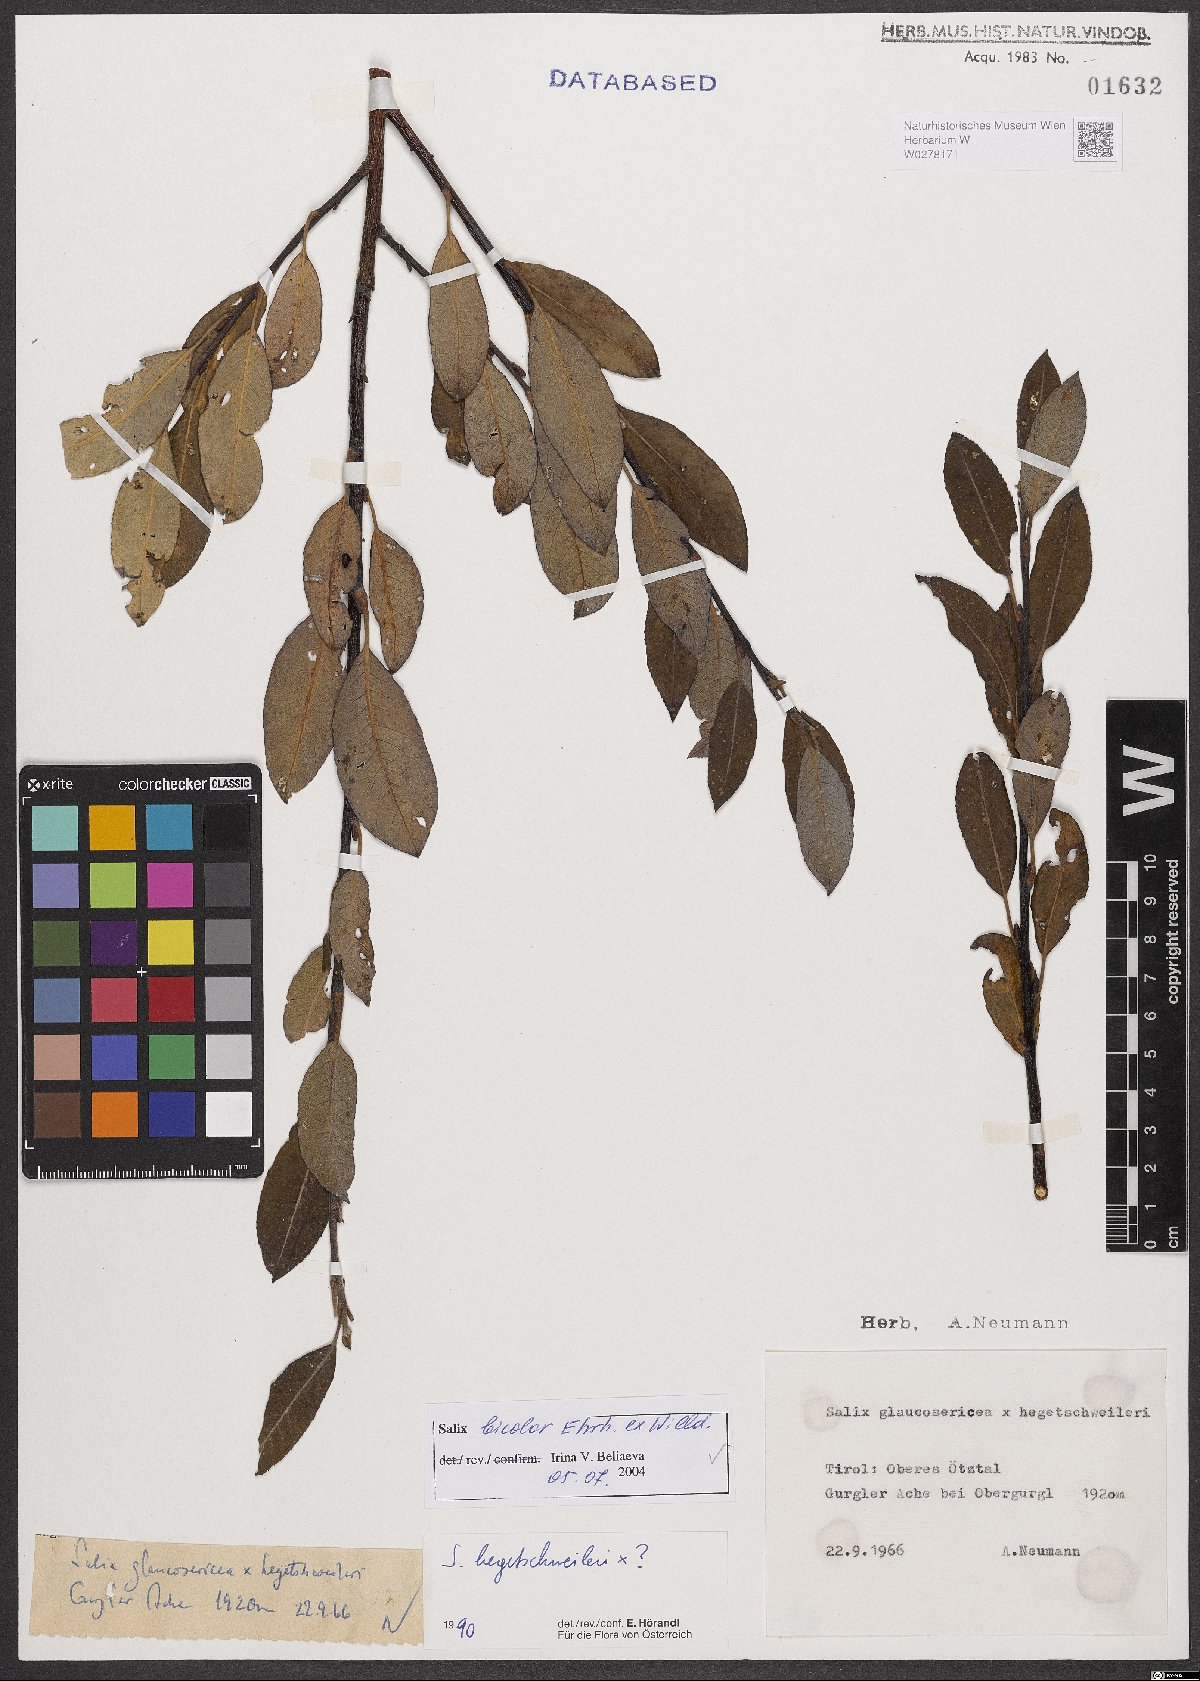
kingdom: Plantae
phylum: Tracheophyta
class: Magnoliopsida
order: Malpighiales
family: Salicaceae
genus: Salix
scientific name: Salix bicolor
